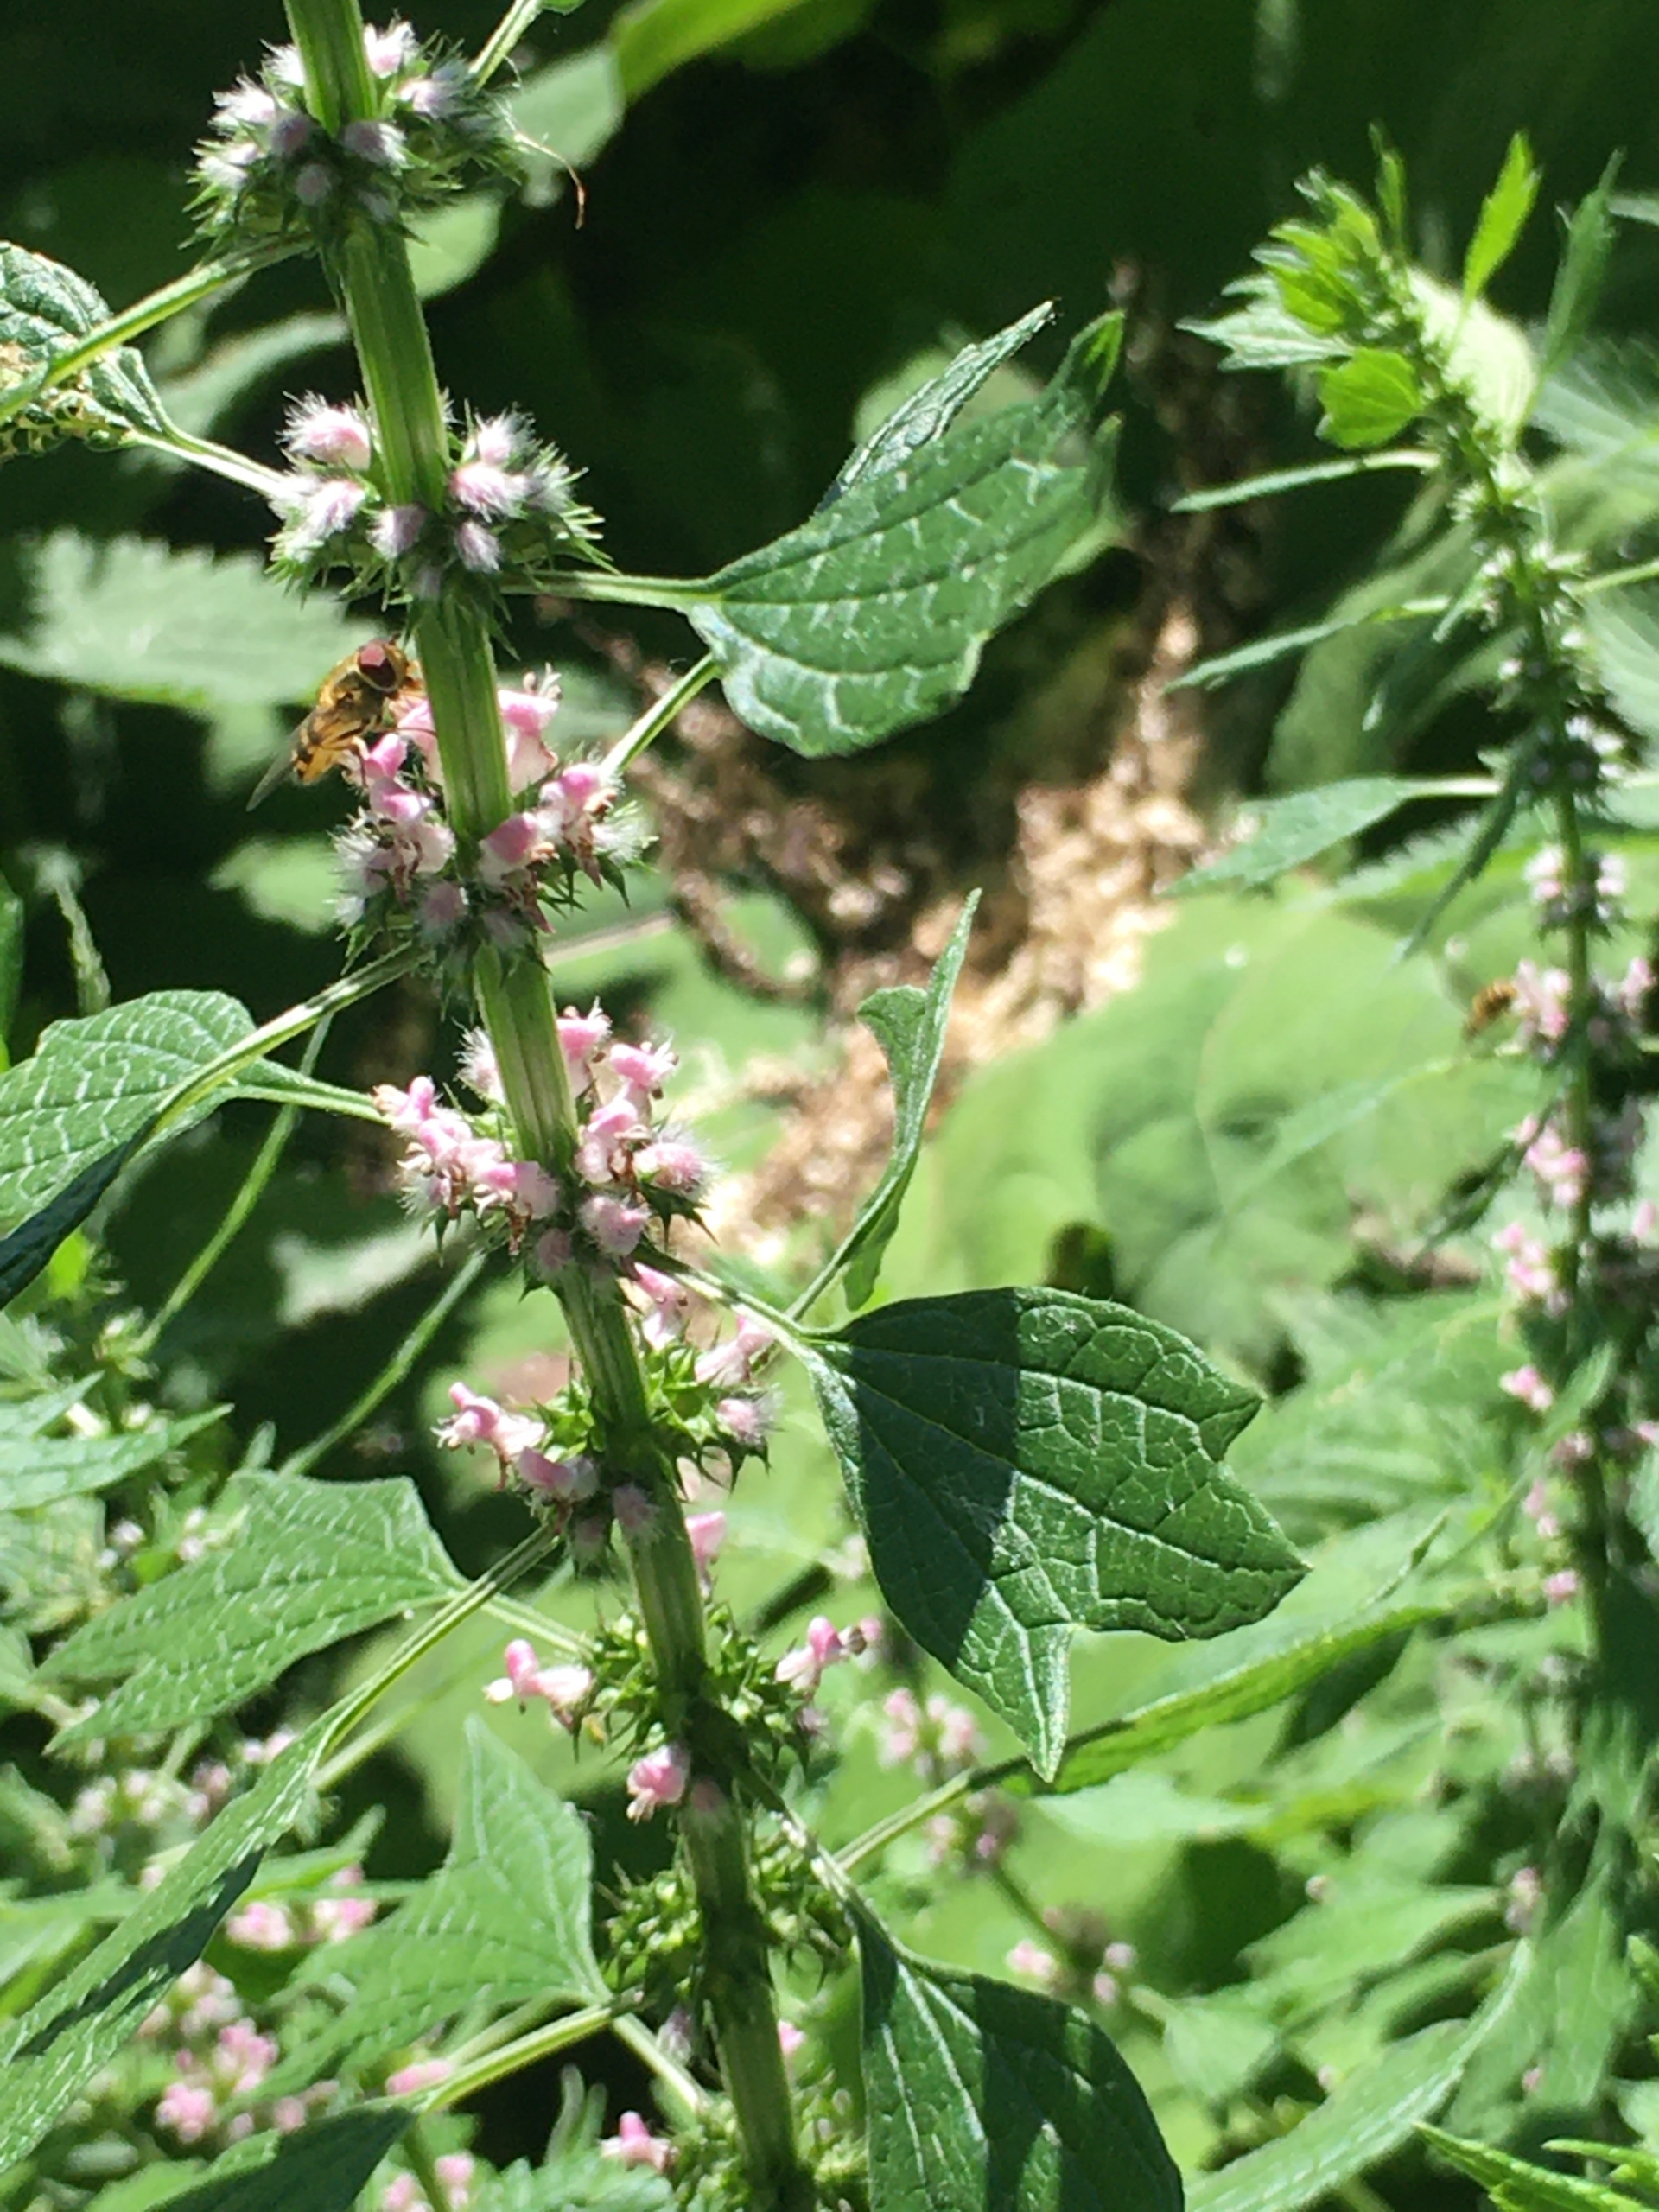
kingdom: Plantae
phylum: Tracheophyta
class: Magnoliopsida
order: Lamiales
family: Lamiaceae
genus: Leonurus
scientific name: Leonurus cardiaca
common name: Hjertespand
